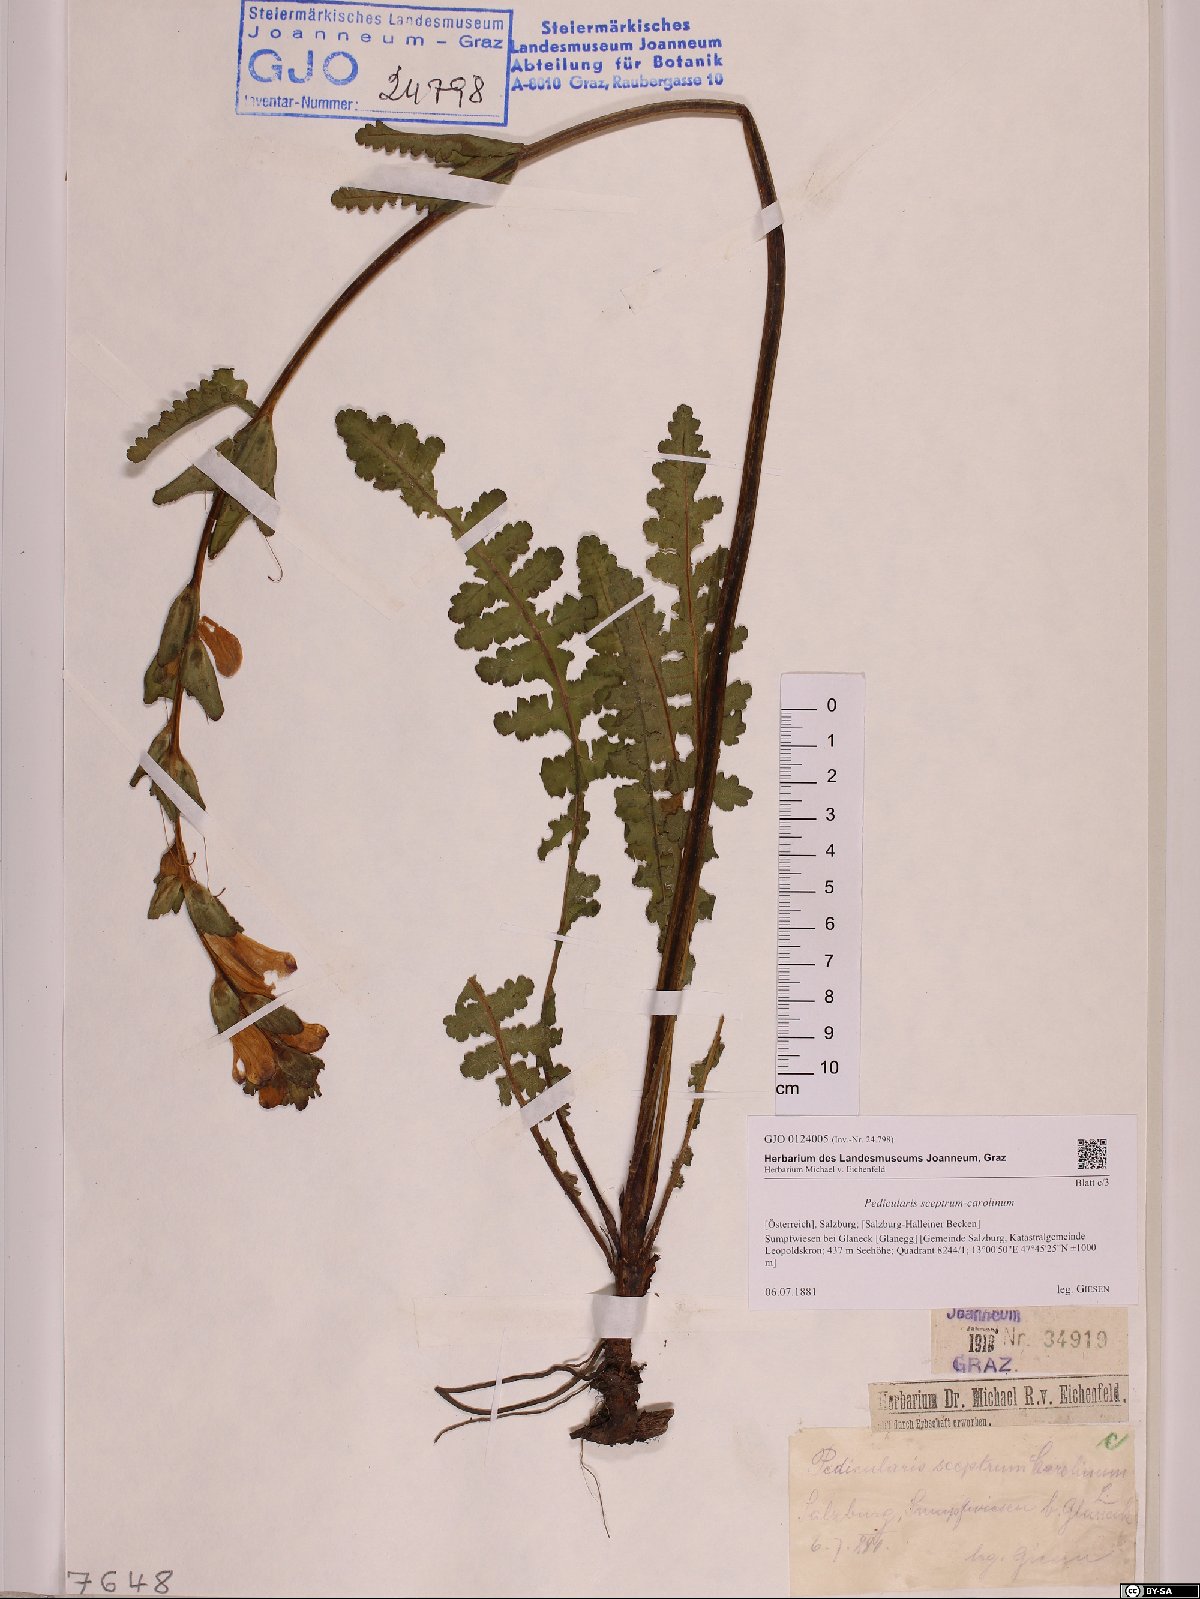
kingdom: Plantae
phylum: Tracheophyta
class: Magnoliopsida
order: Lamiales
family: Orobanchaceae
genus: Pedicularis
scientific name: Pedicularis sceptrum-carolinum
